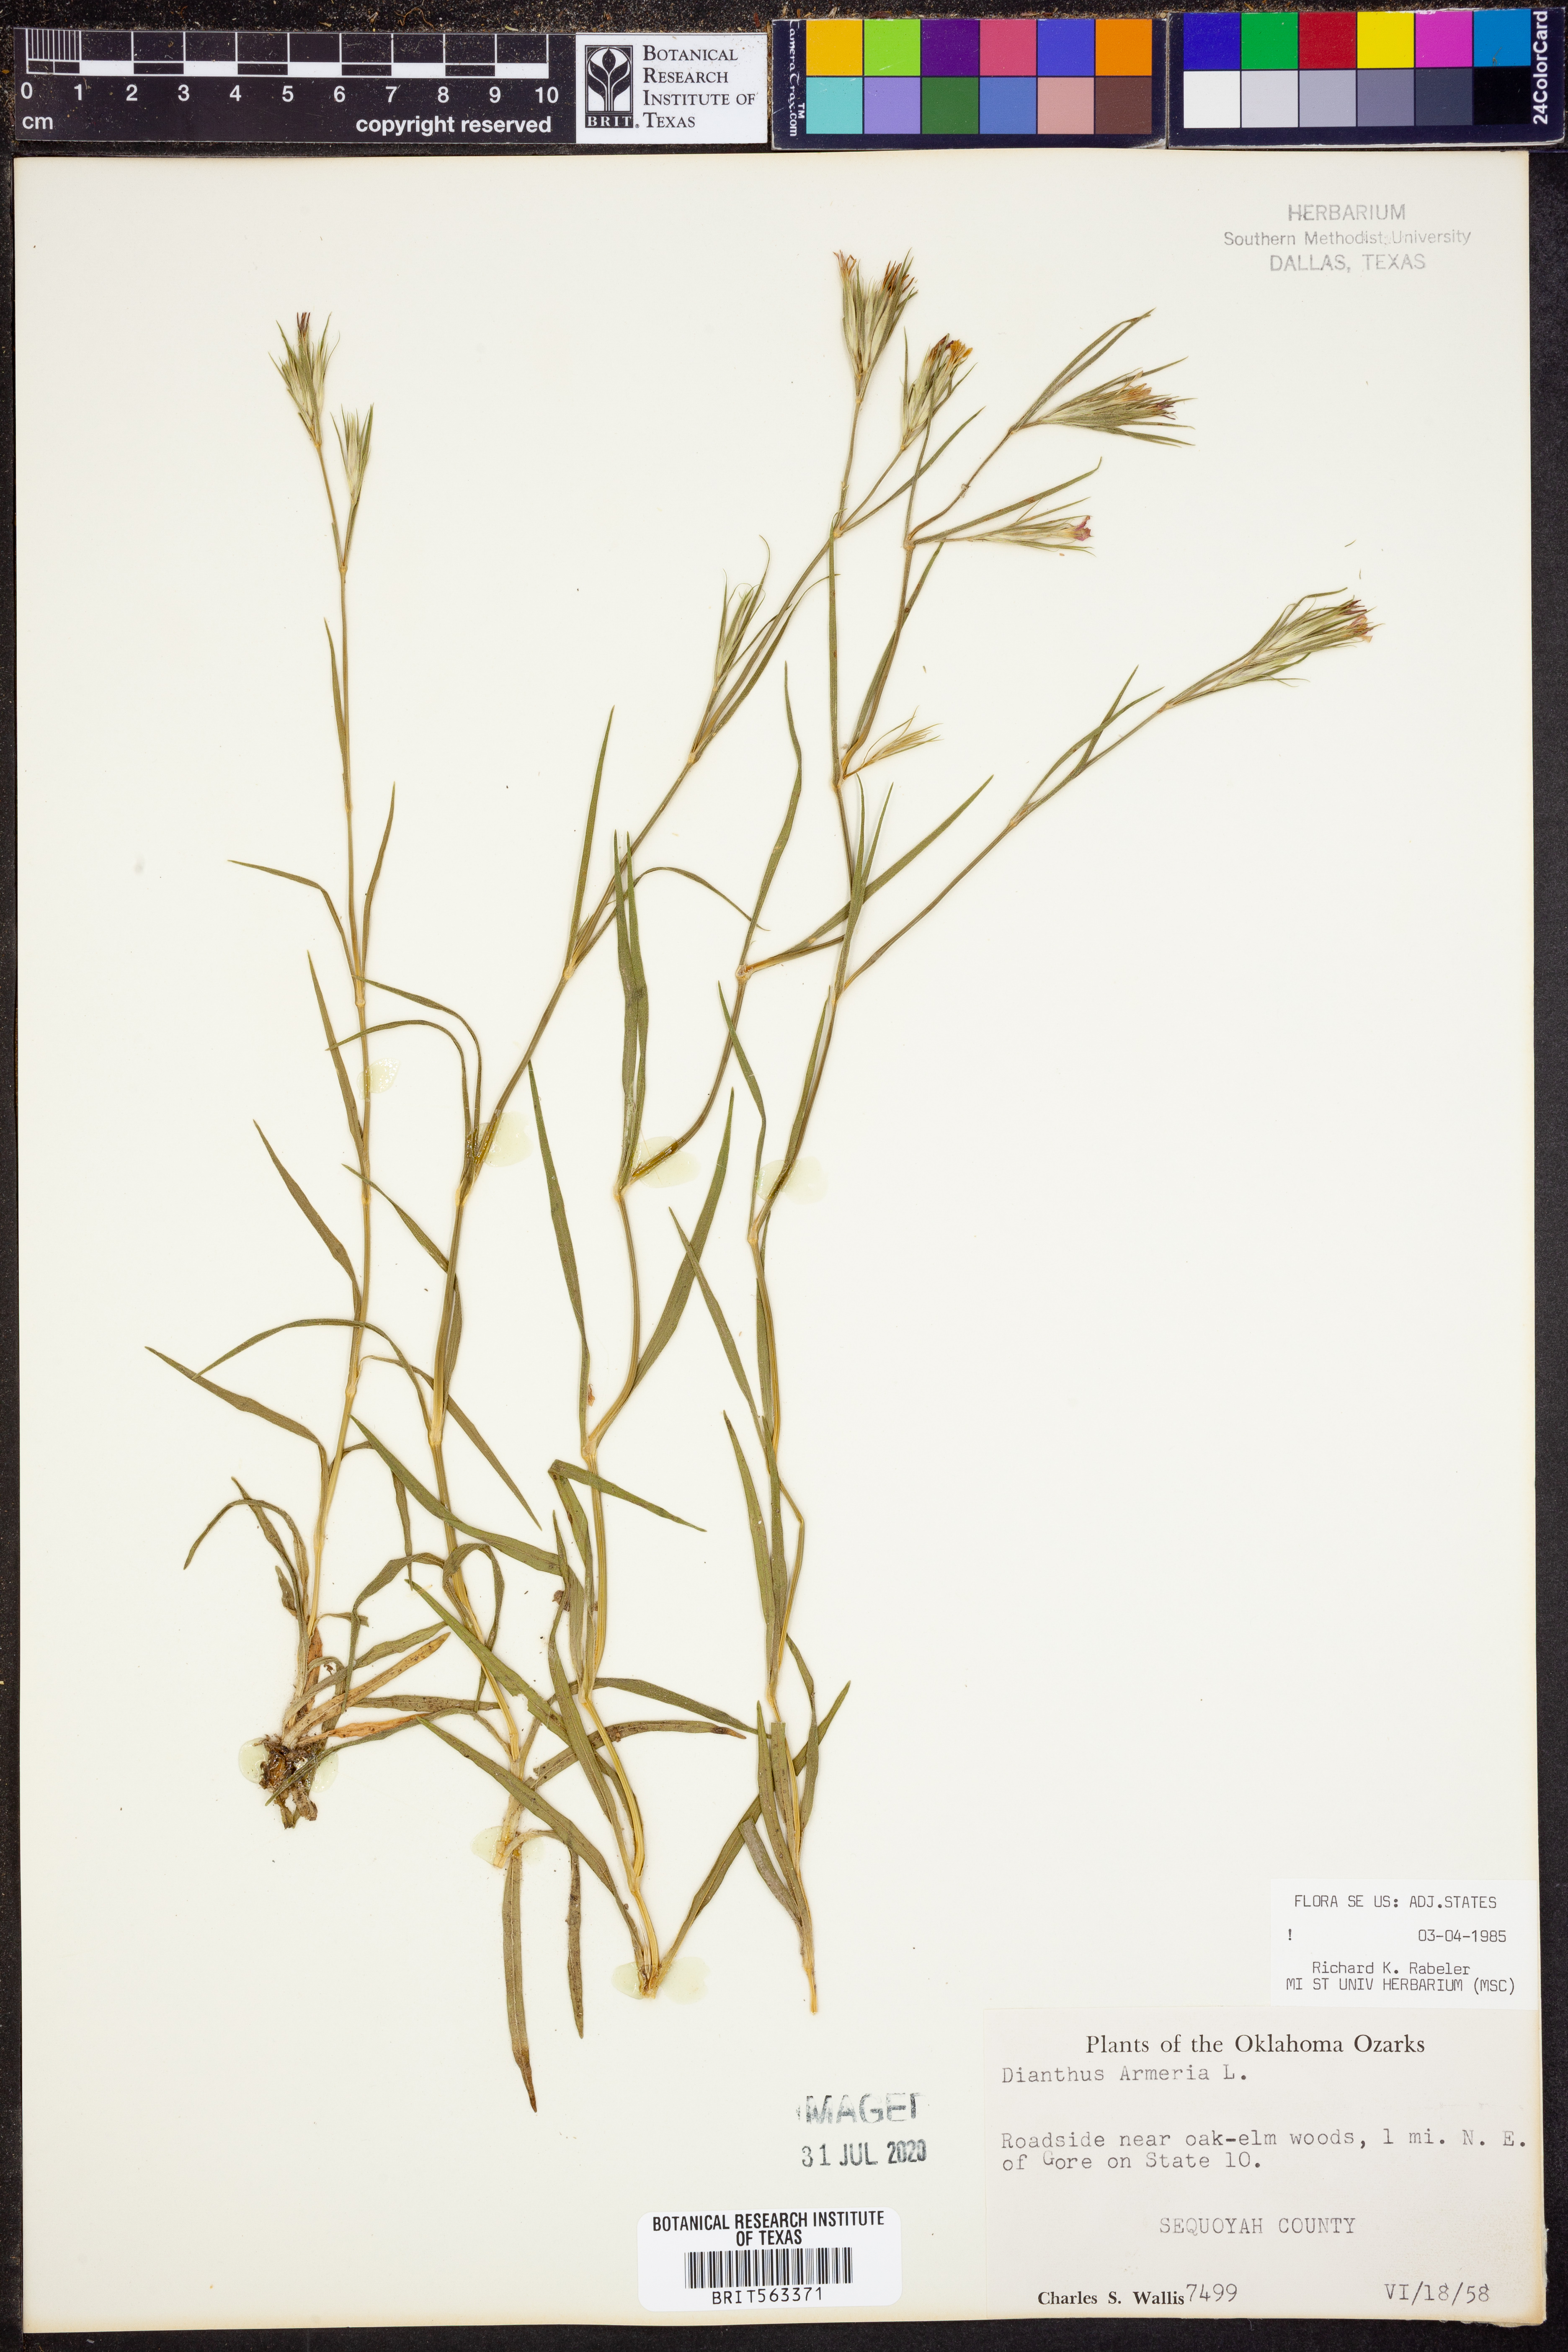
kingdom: Plantae
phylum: Tracheophyta
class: Magnoliopsida
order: Caryophyllales
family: Caryophyllaceae
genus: Dianthus
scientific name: Dianthus armeria
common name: Deptford pink
